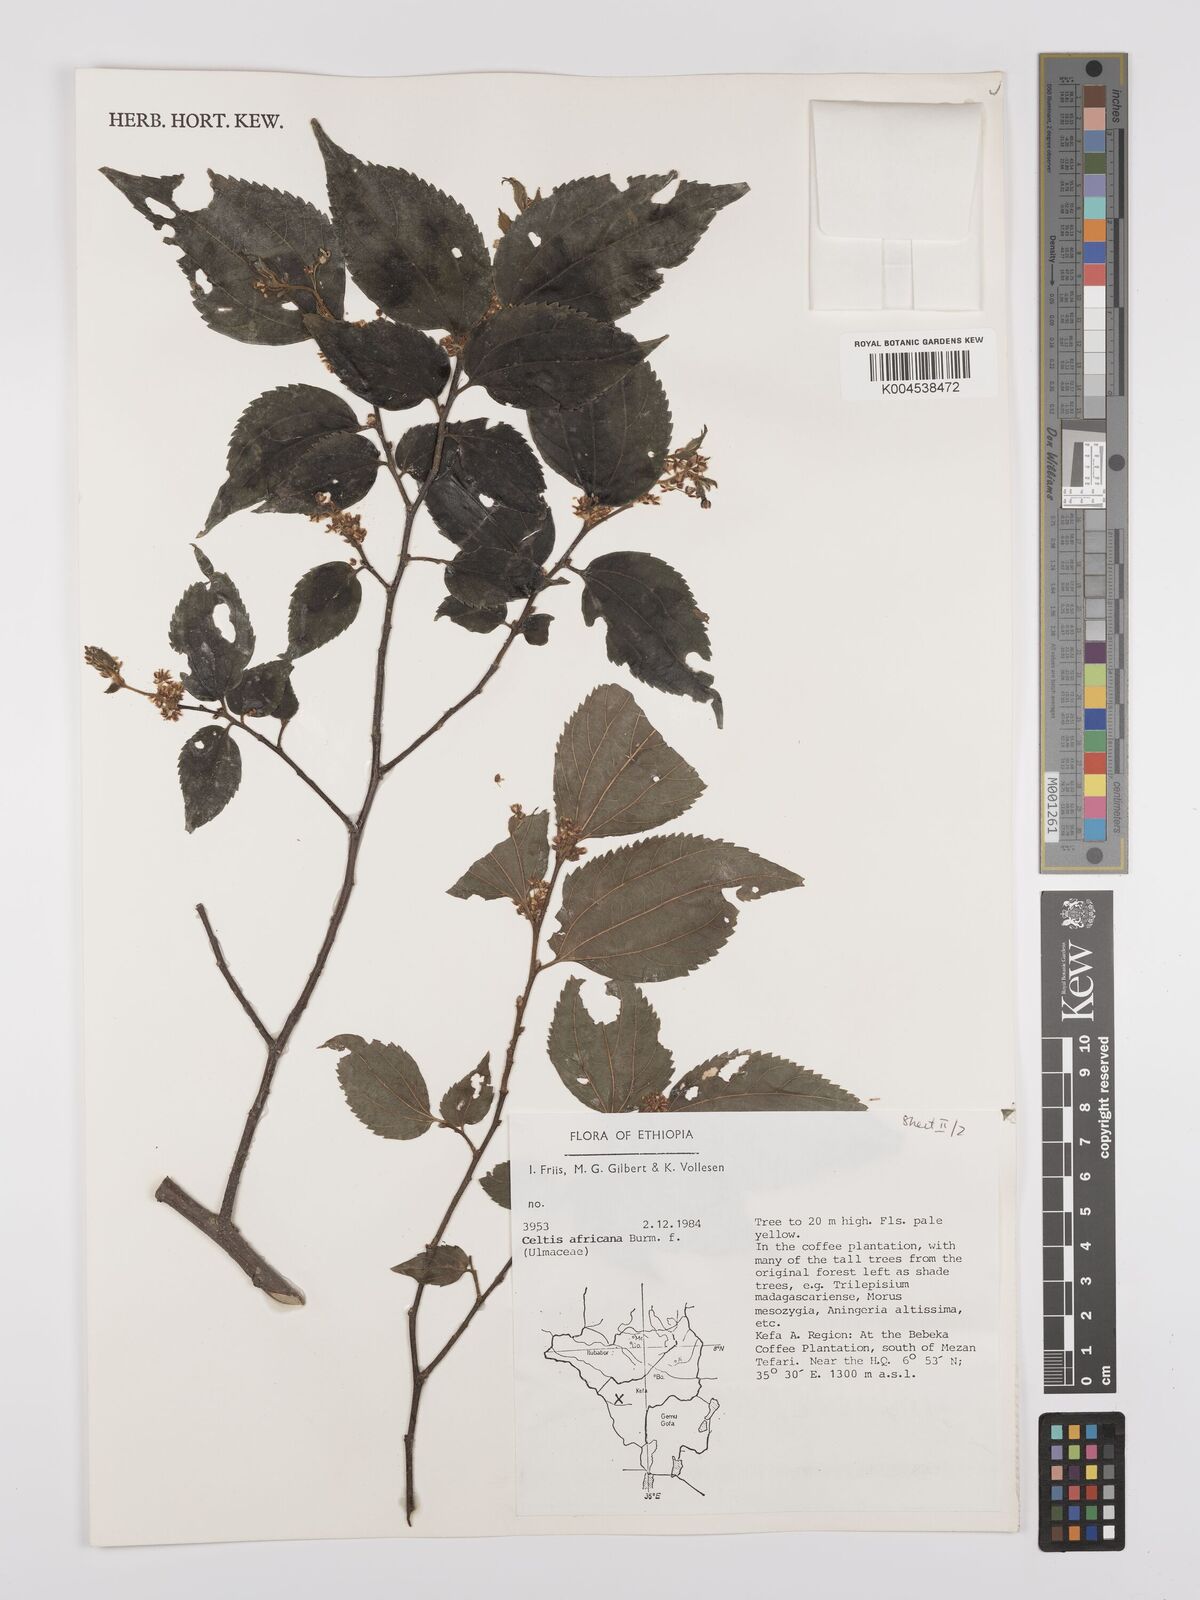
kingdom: Plantae
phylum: Tracheophyta
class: Magnoliopsida
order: Rosales
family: Cannabaceae
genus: Celtis
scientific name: Celtis africana
